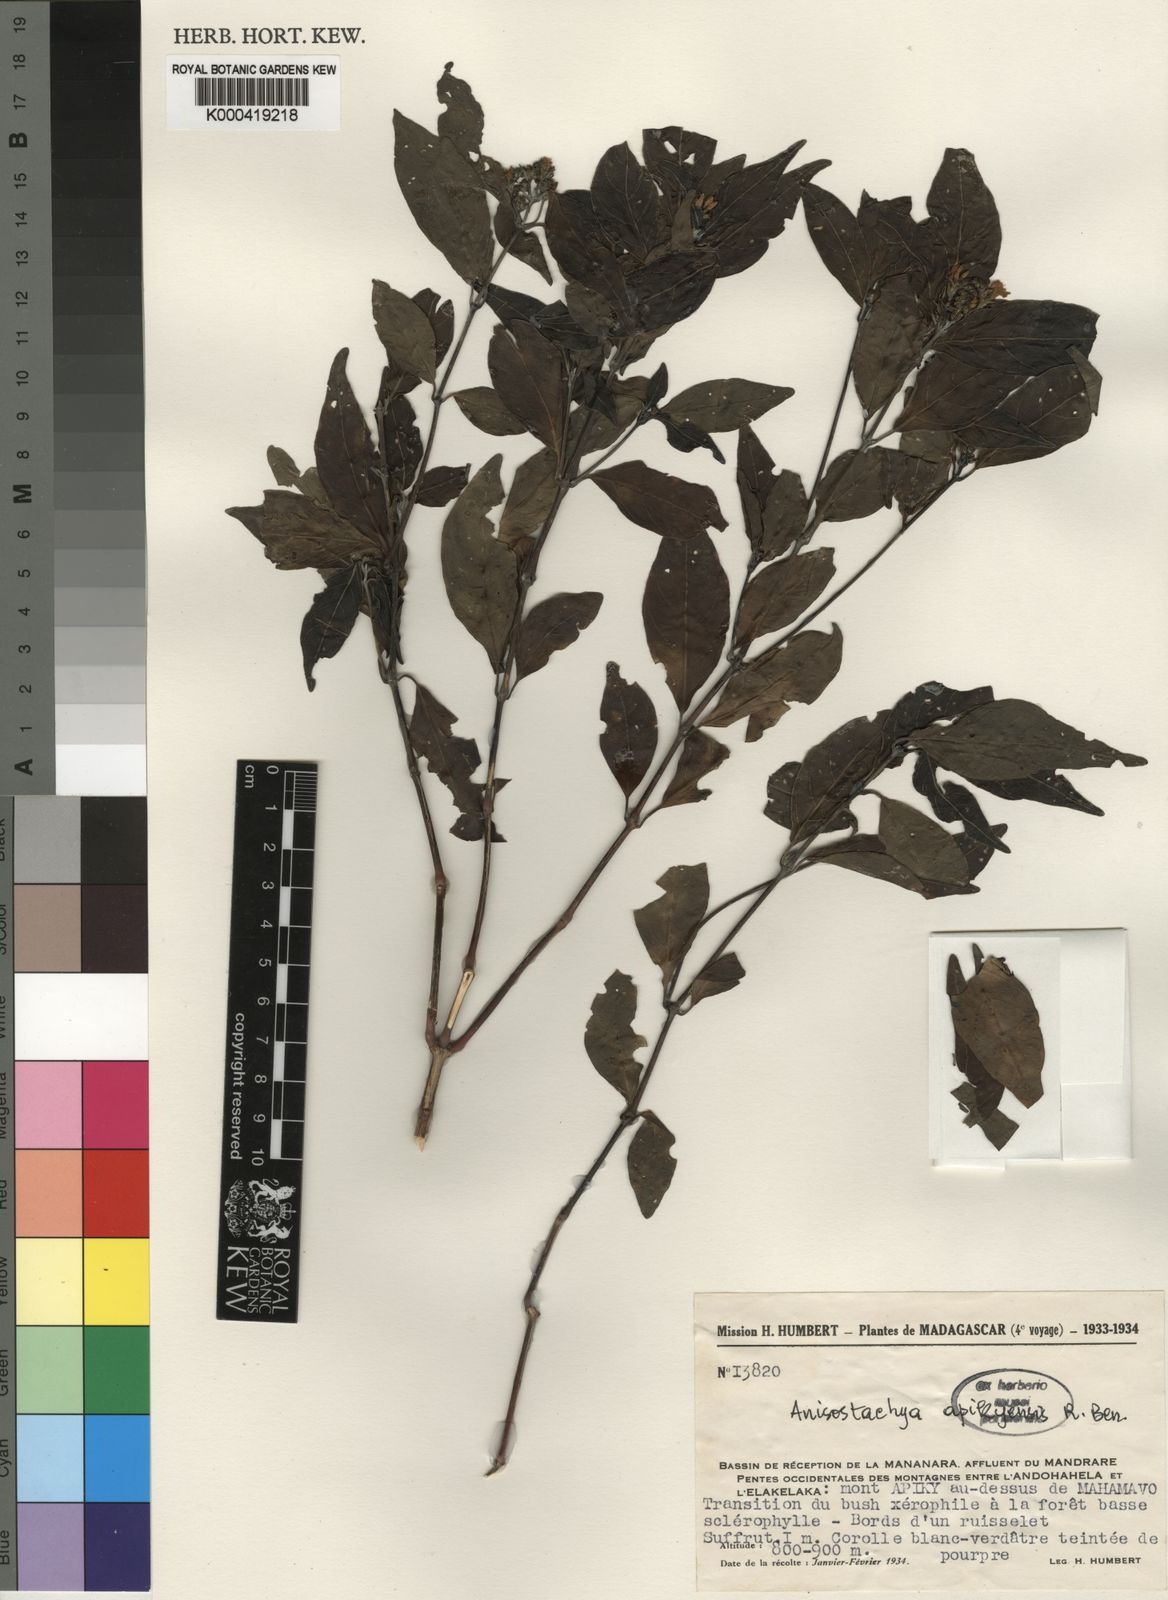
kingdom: Plantae
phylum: Tracheophyta
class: Magnoliopsida
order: Lamiales
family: Acanthaceae
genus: Justicia
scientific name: Justicia
